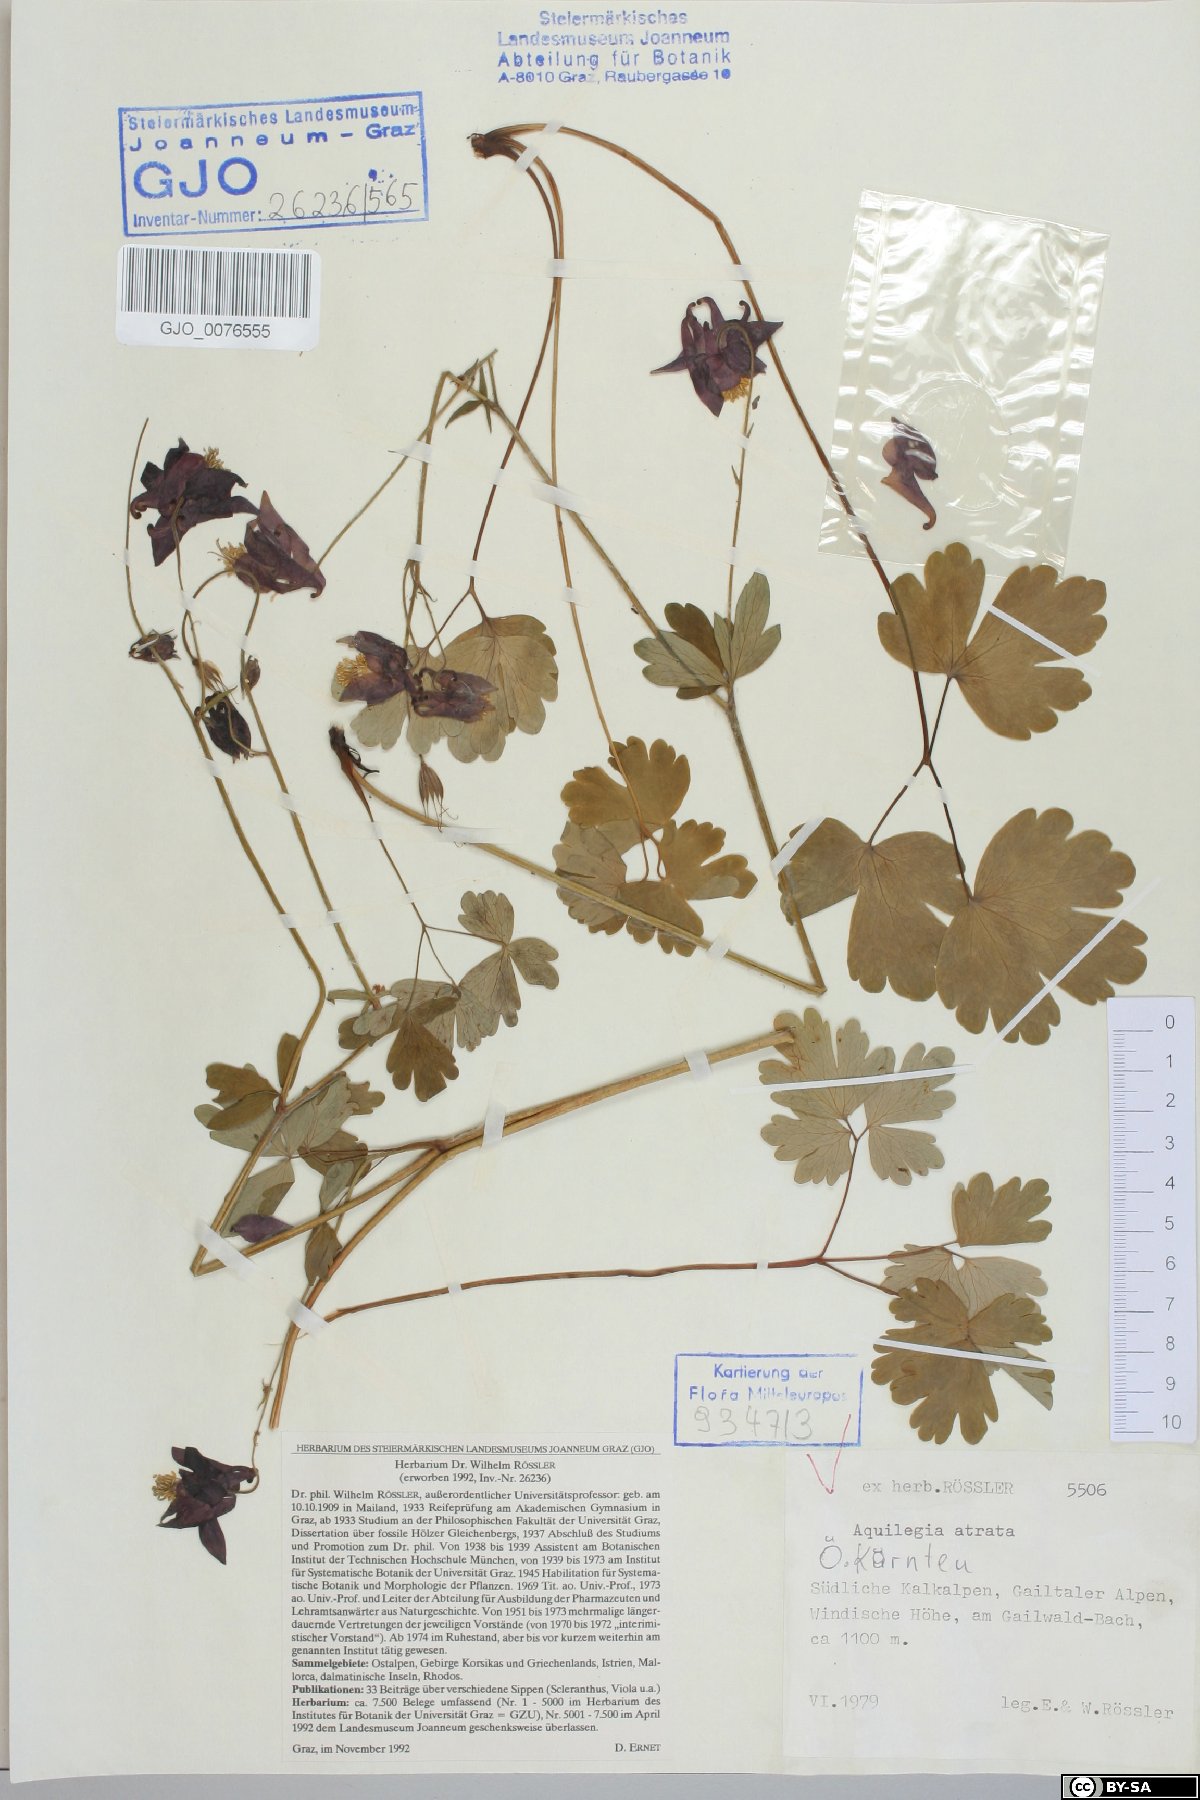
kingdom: Plantae
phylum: Tracheophyta
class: Magnoliopsida
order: Ranunculales
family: Ranunculaceae
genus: Aquilegia
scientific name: Aquilegia atrata
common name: Dark columbine
